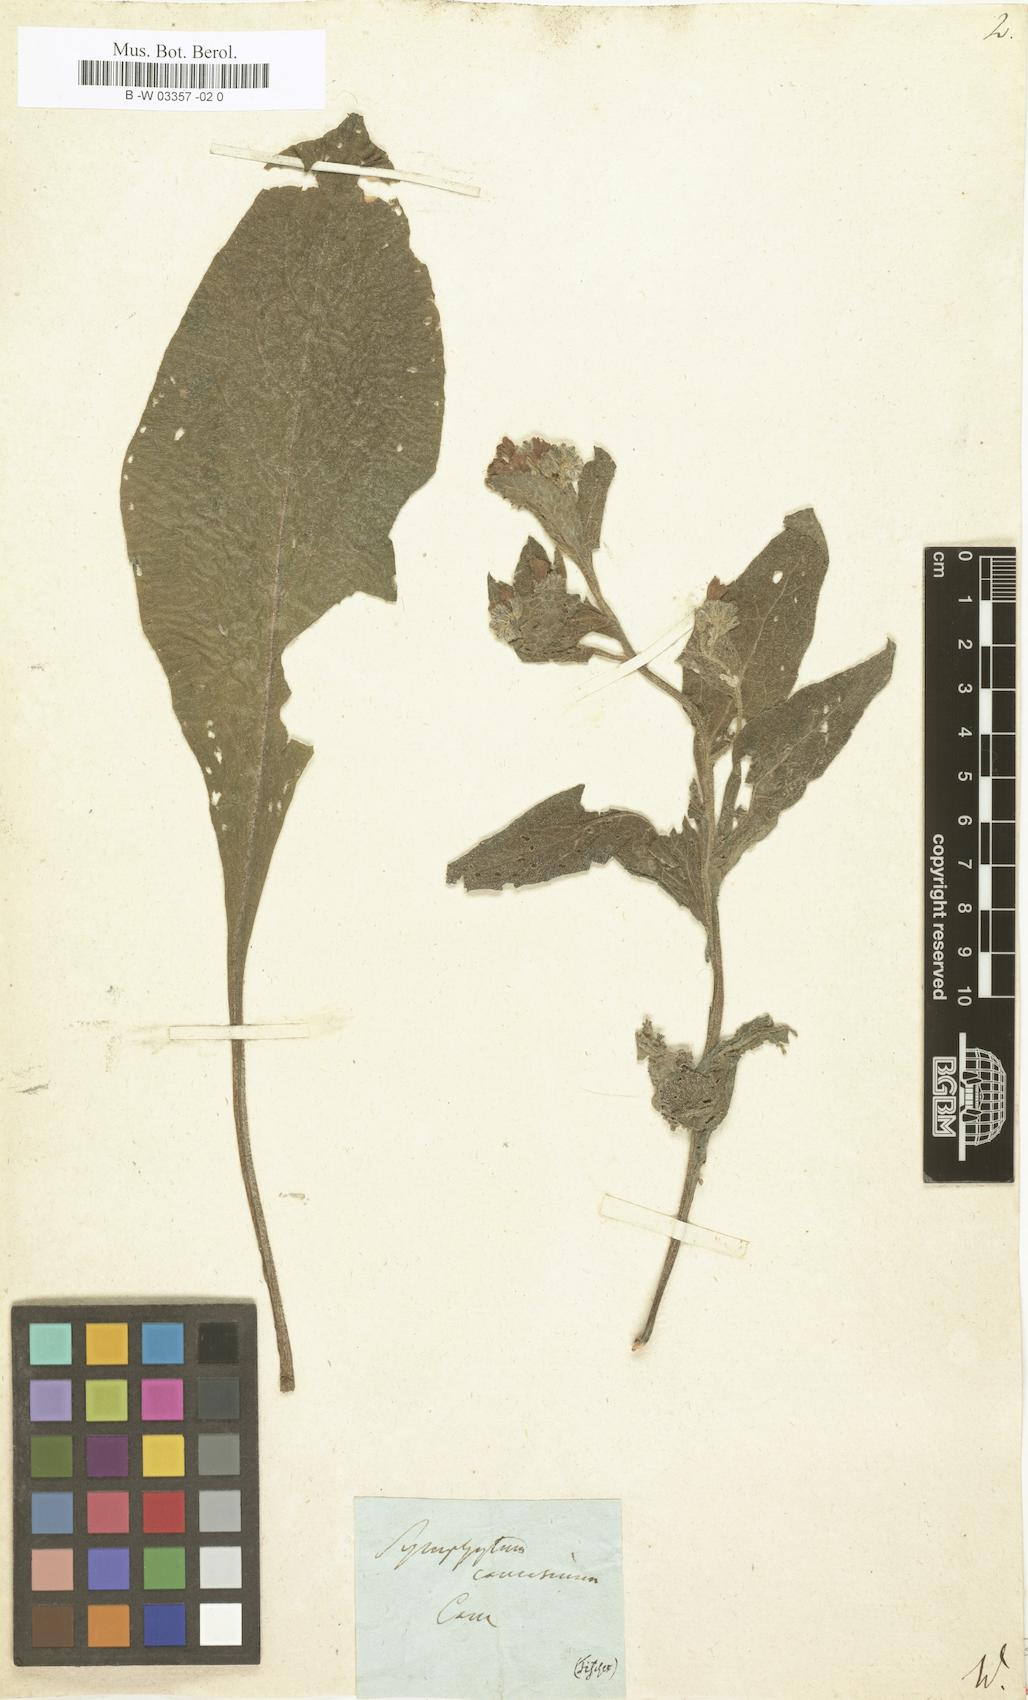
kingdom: Plantae
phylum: Tracheophyta
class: Magnoliopsida
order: Boraginales
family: Boraginaceae
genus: Symphytum
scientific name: Symphytum caucasicum
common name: Caucasian comfrey
